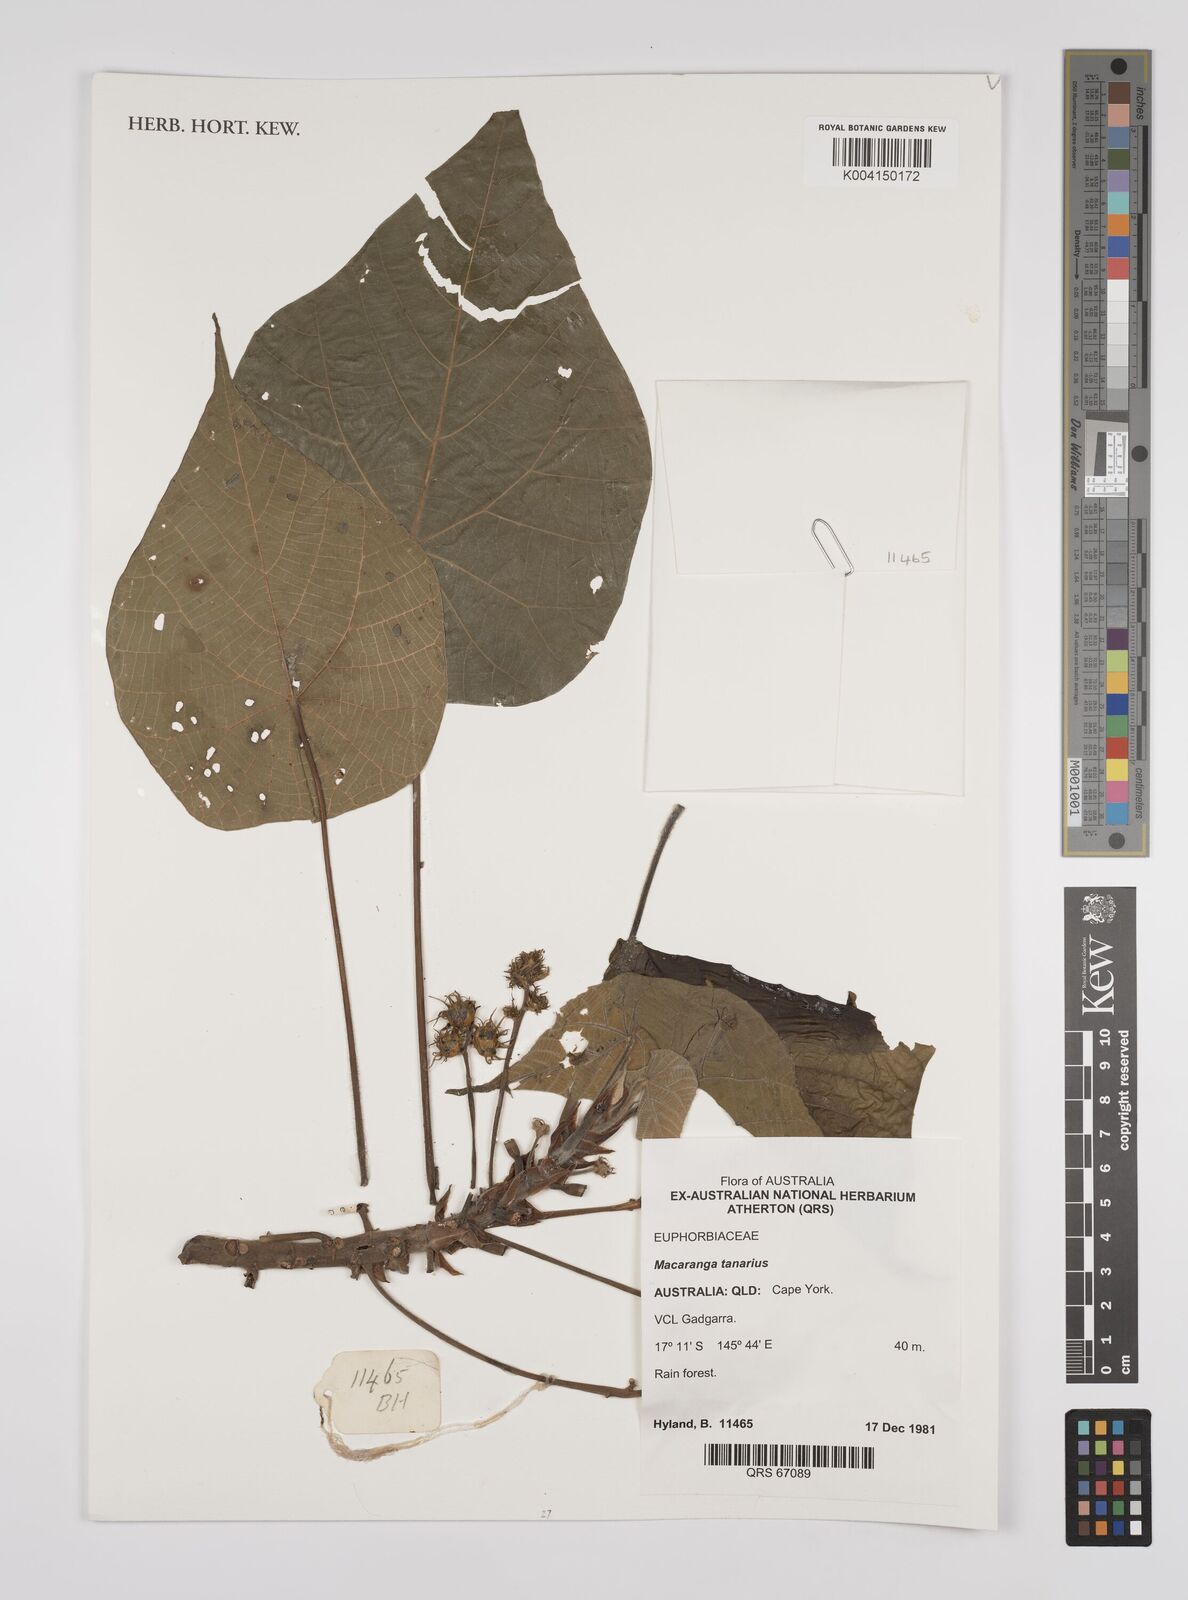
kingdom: Plantae
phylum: Tracheophyta
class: Magnoliopsida
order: Malpighiales
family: Euphorbiaceae
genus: Macaranga
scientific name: Macaranga tanarius
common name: Parasol leaf tree
